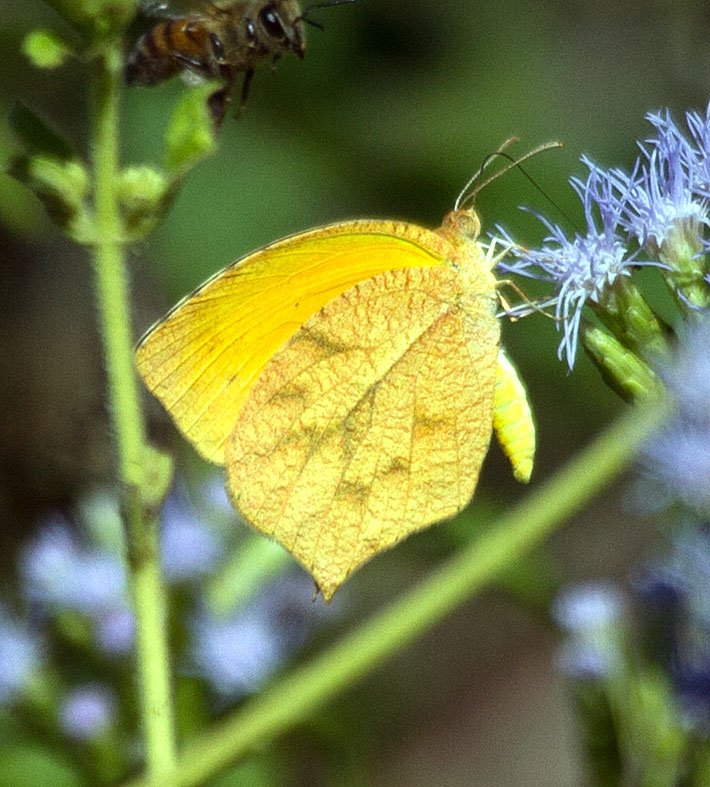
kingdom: Animalia
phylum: Arthropoda
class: Insecta
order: Lepidoptera
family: Pieridae
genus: Pyrisitia
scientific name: Pyrisitia proterpia
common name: Tailed Orange
